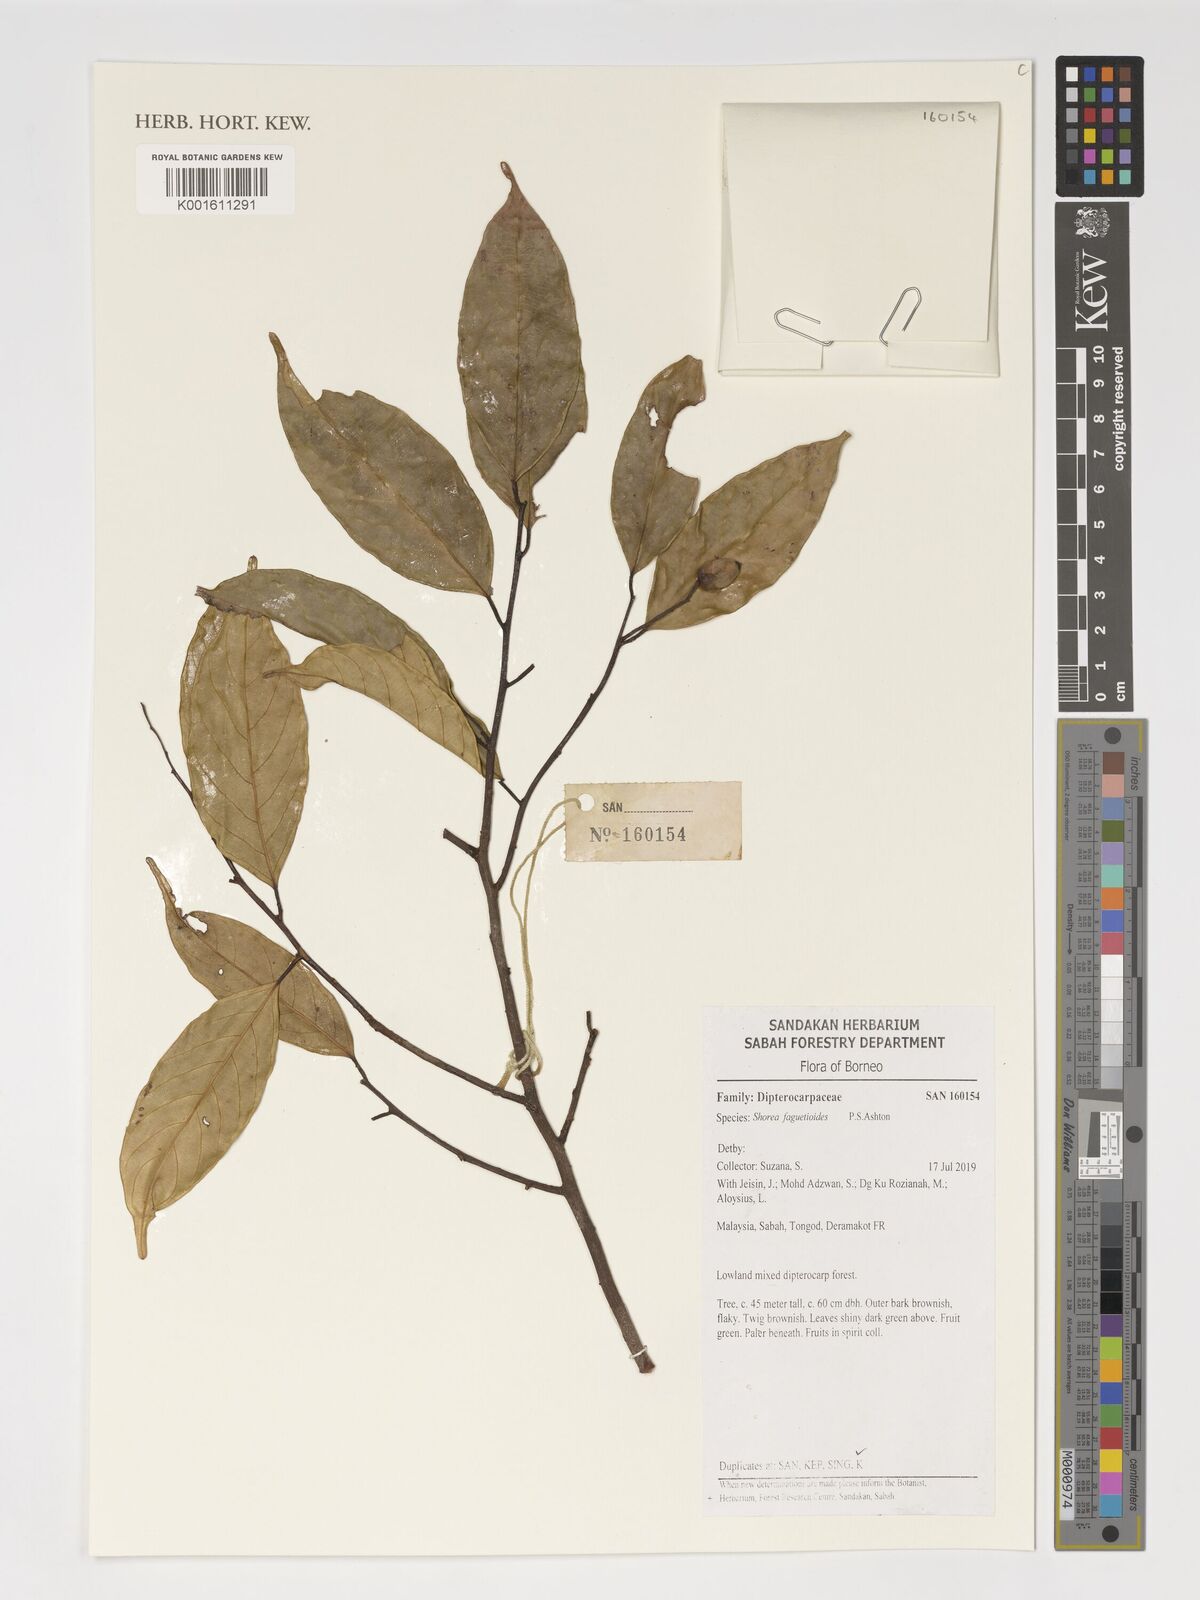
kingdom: Plantae
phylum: Tracheophyta
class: Magnoliopsida
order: Malvales
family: Dipterocarpaceae
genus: Shorea
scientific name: Shorea faguetioides
